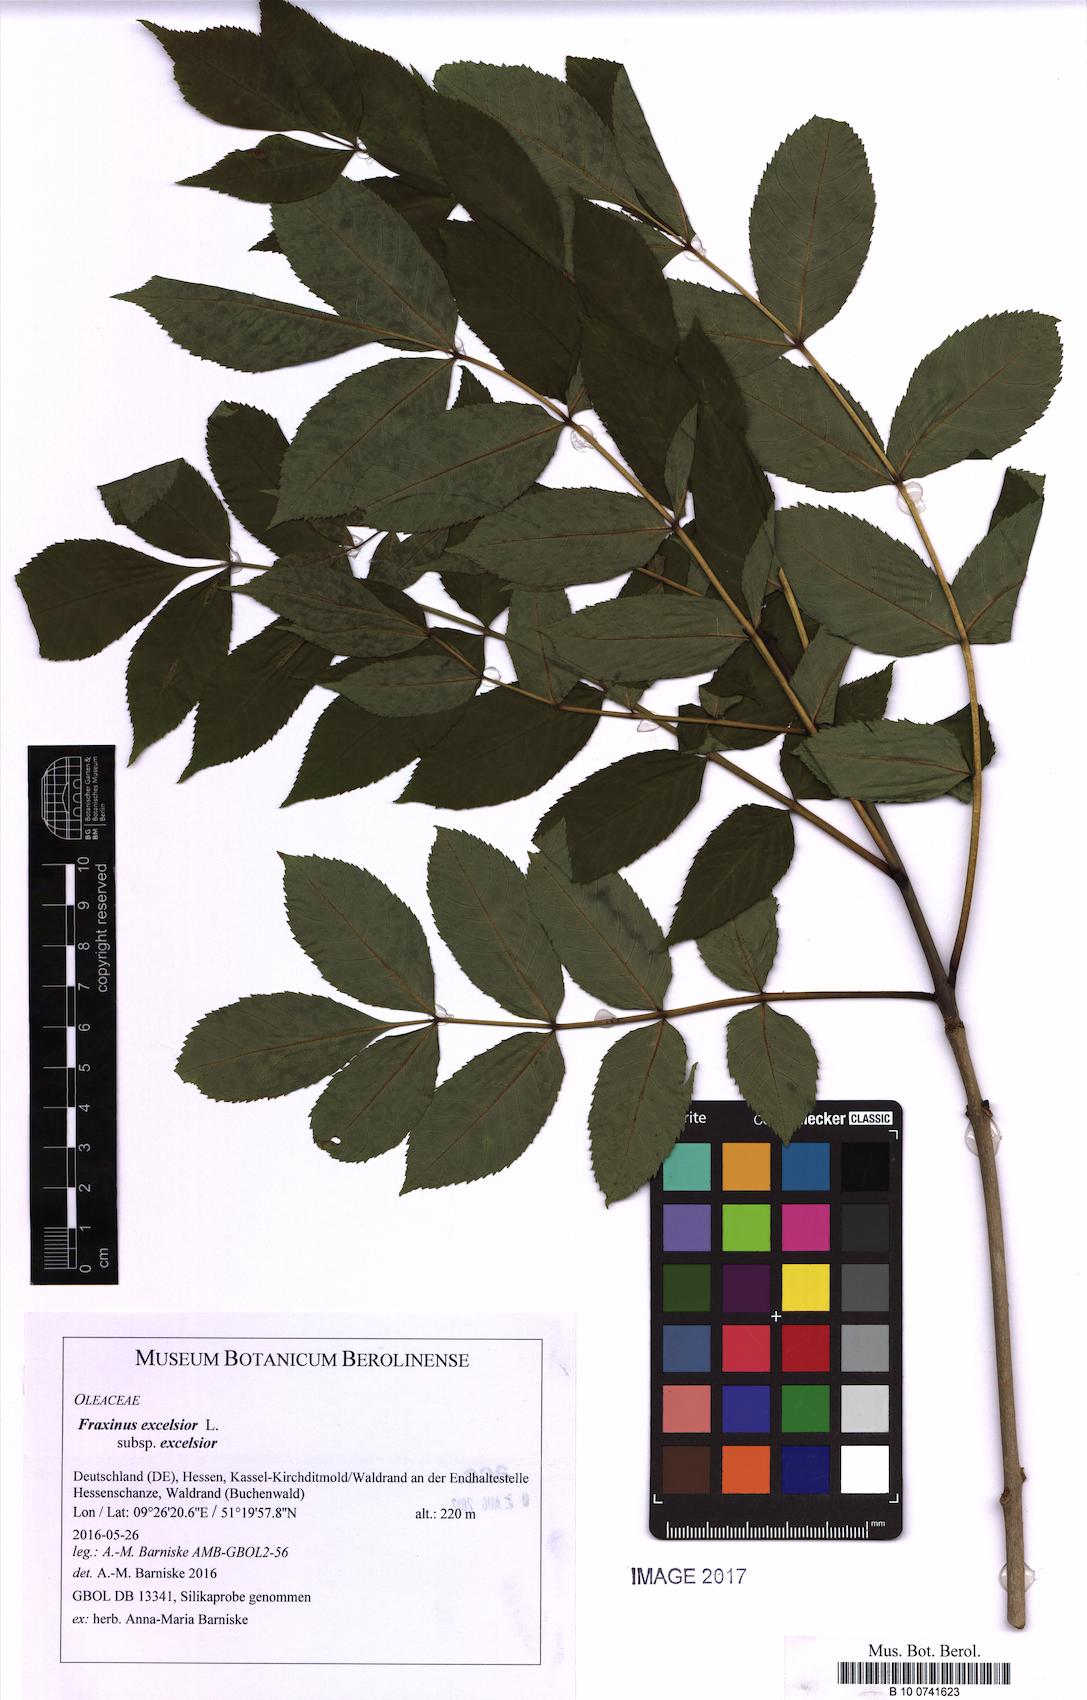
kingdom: Plantae
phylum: Tracheophyta
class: Magnoliopsida
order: Lamiales
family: Oleaceae
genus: Fraxinus
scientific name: Fraxinus excelsior
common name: European ash
